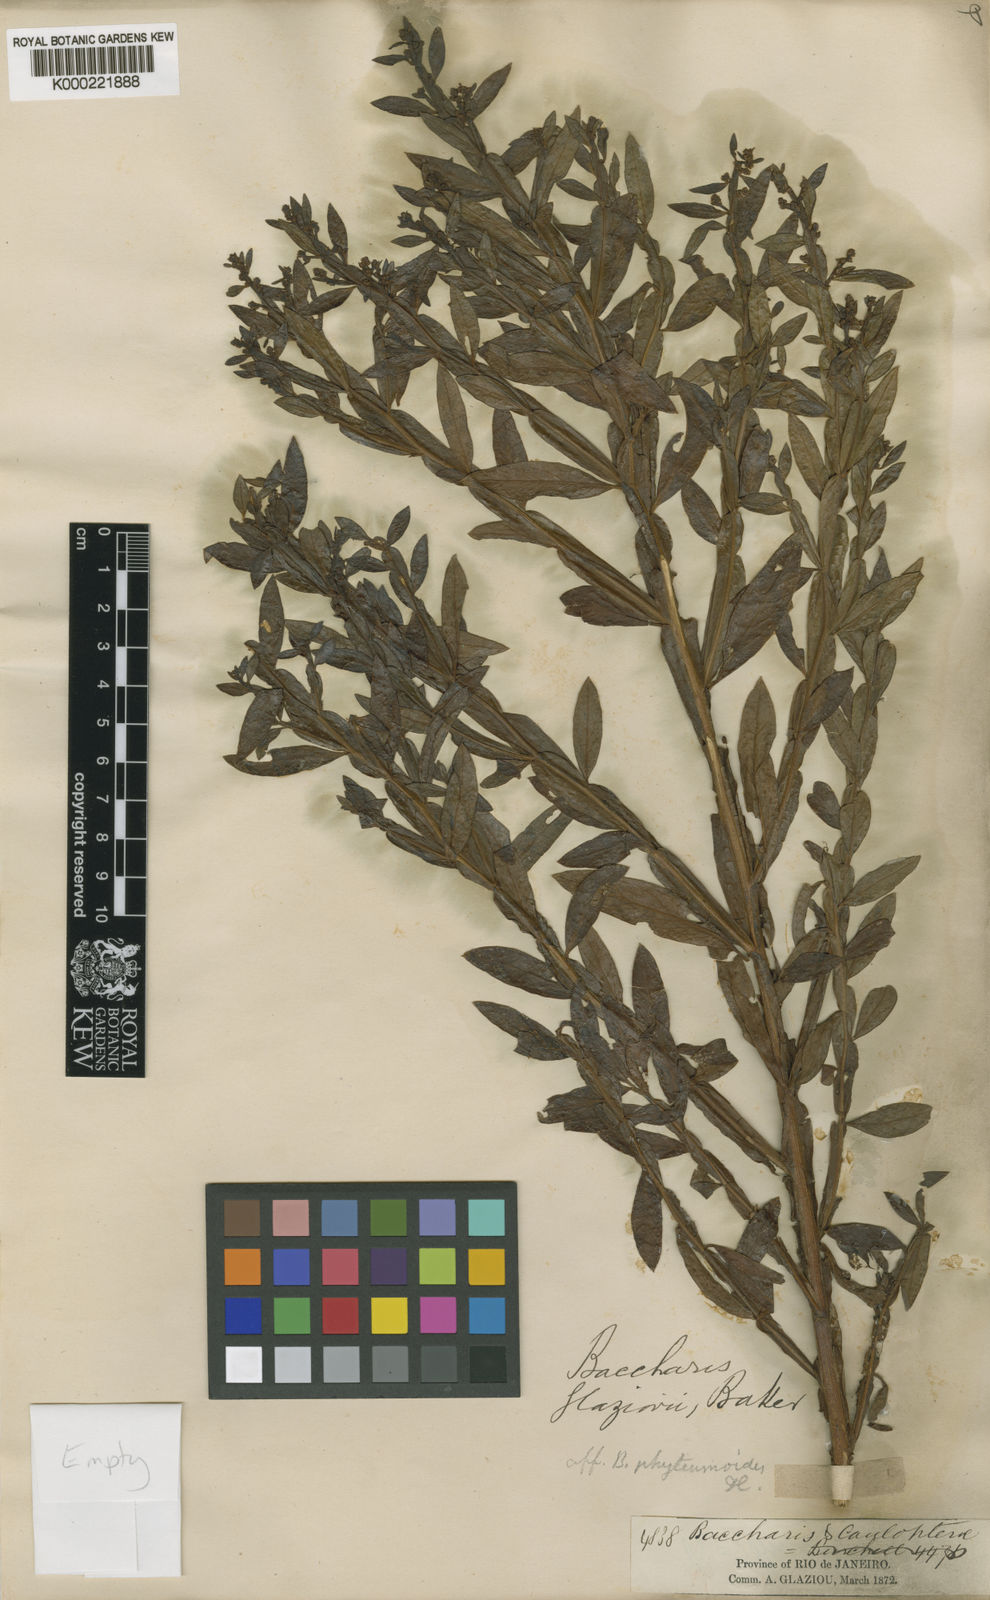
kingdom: Plantae
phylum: Tracheophyta
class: Magnoliopsida
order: Asterales
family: Asteraceae
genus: Baccharis
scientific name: Baccharis glaziovii
